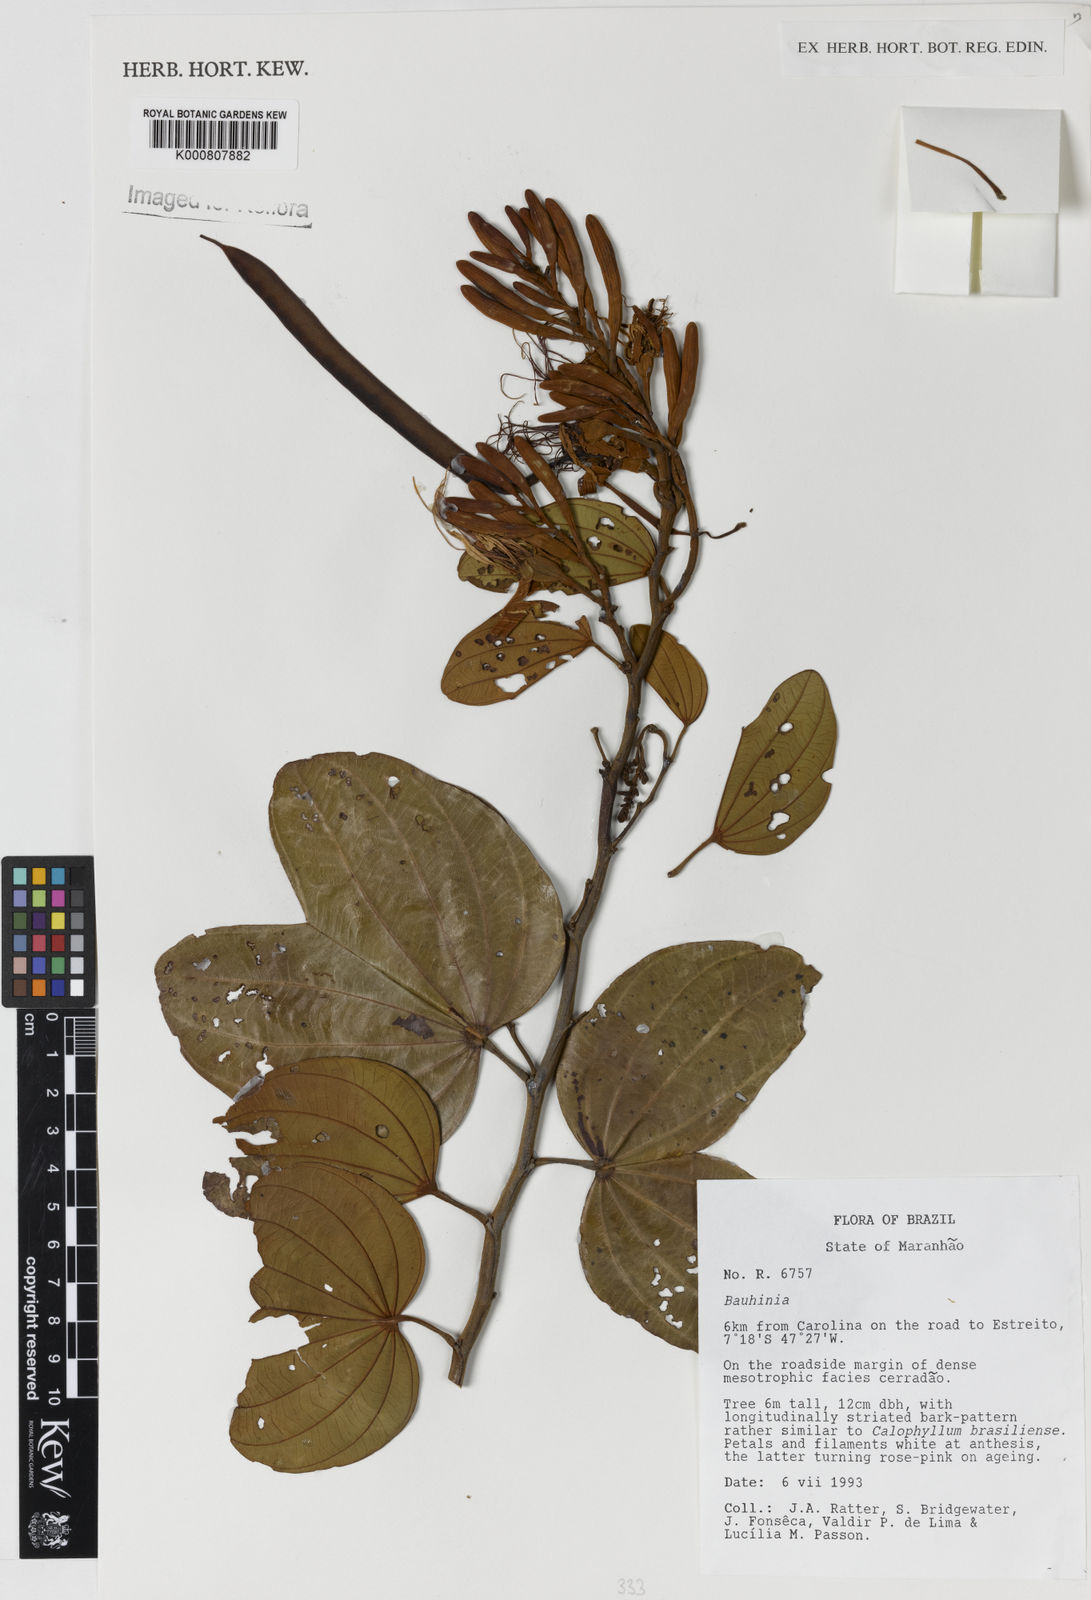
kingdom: Plantae
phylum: Tracheophyta
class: Magnoliopsida
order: Fabales
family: Fabaceae
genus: Bauhinia
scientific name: Bauhinia
